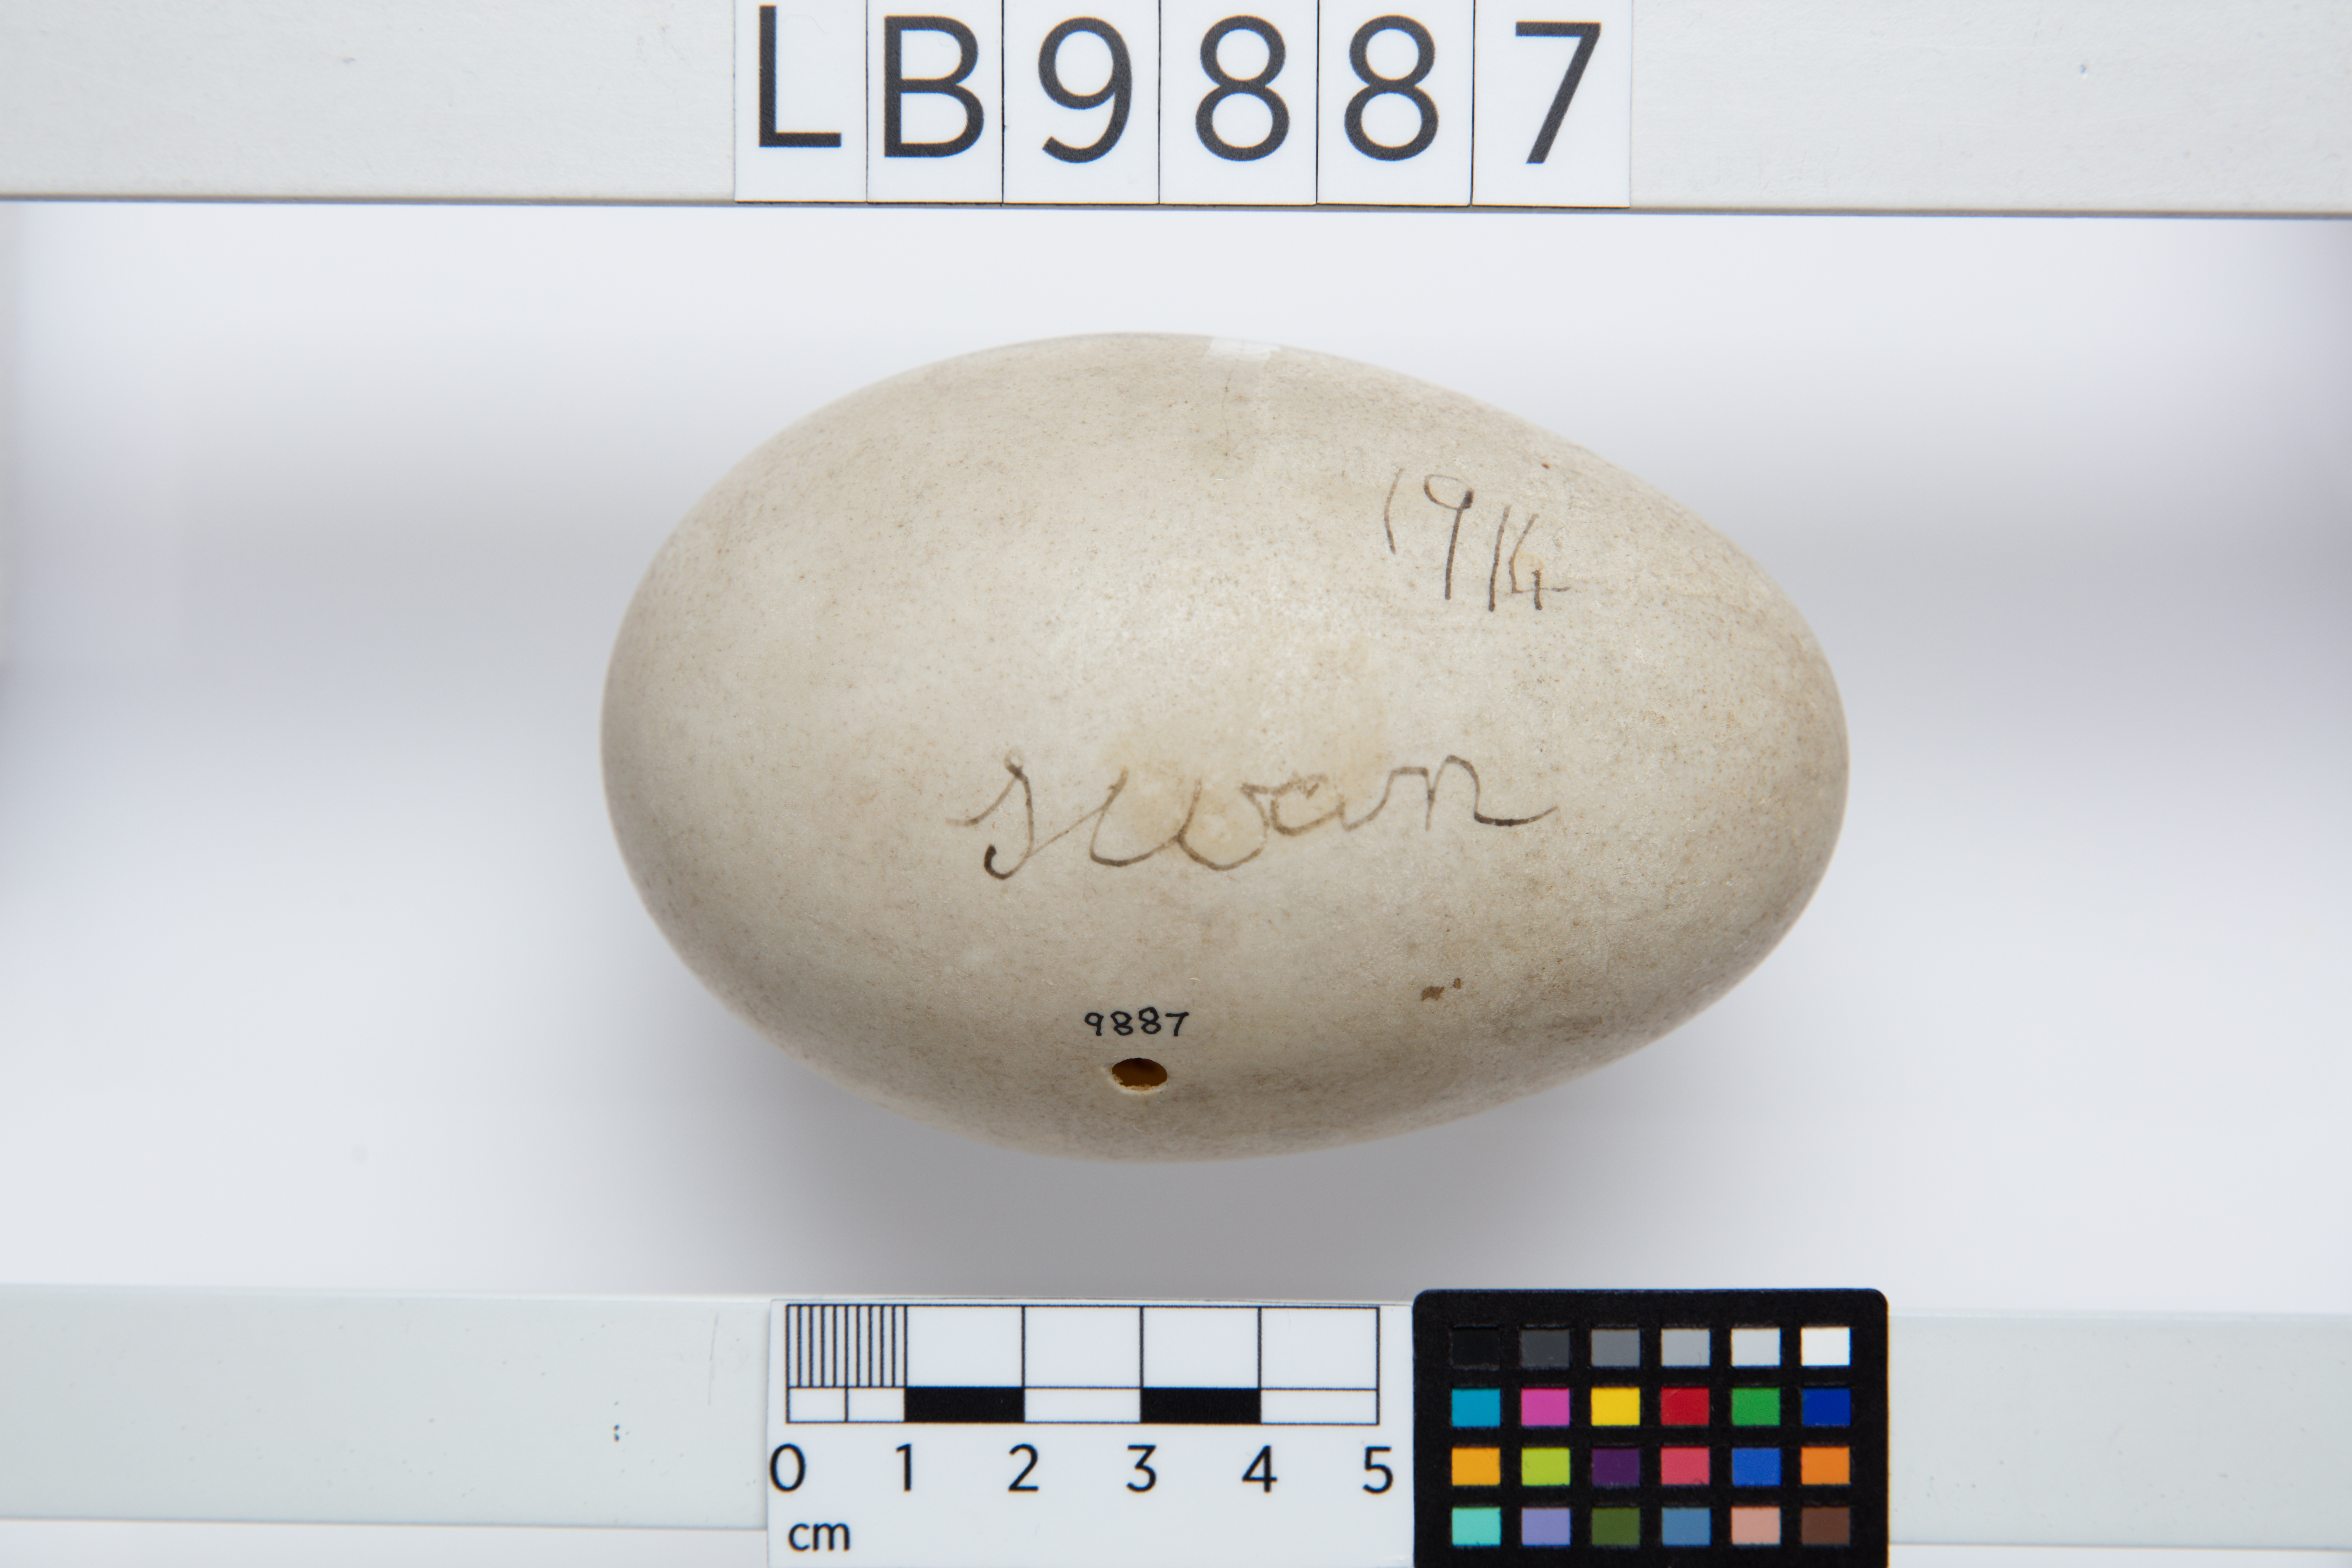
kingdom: Animalia
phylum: Chordata
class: Aves
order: Anseriformes
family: Anatidae
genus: Cygnus
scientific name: Cygnus olor
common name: Mute swan
